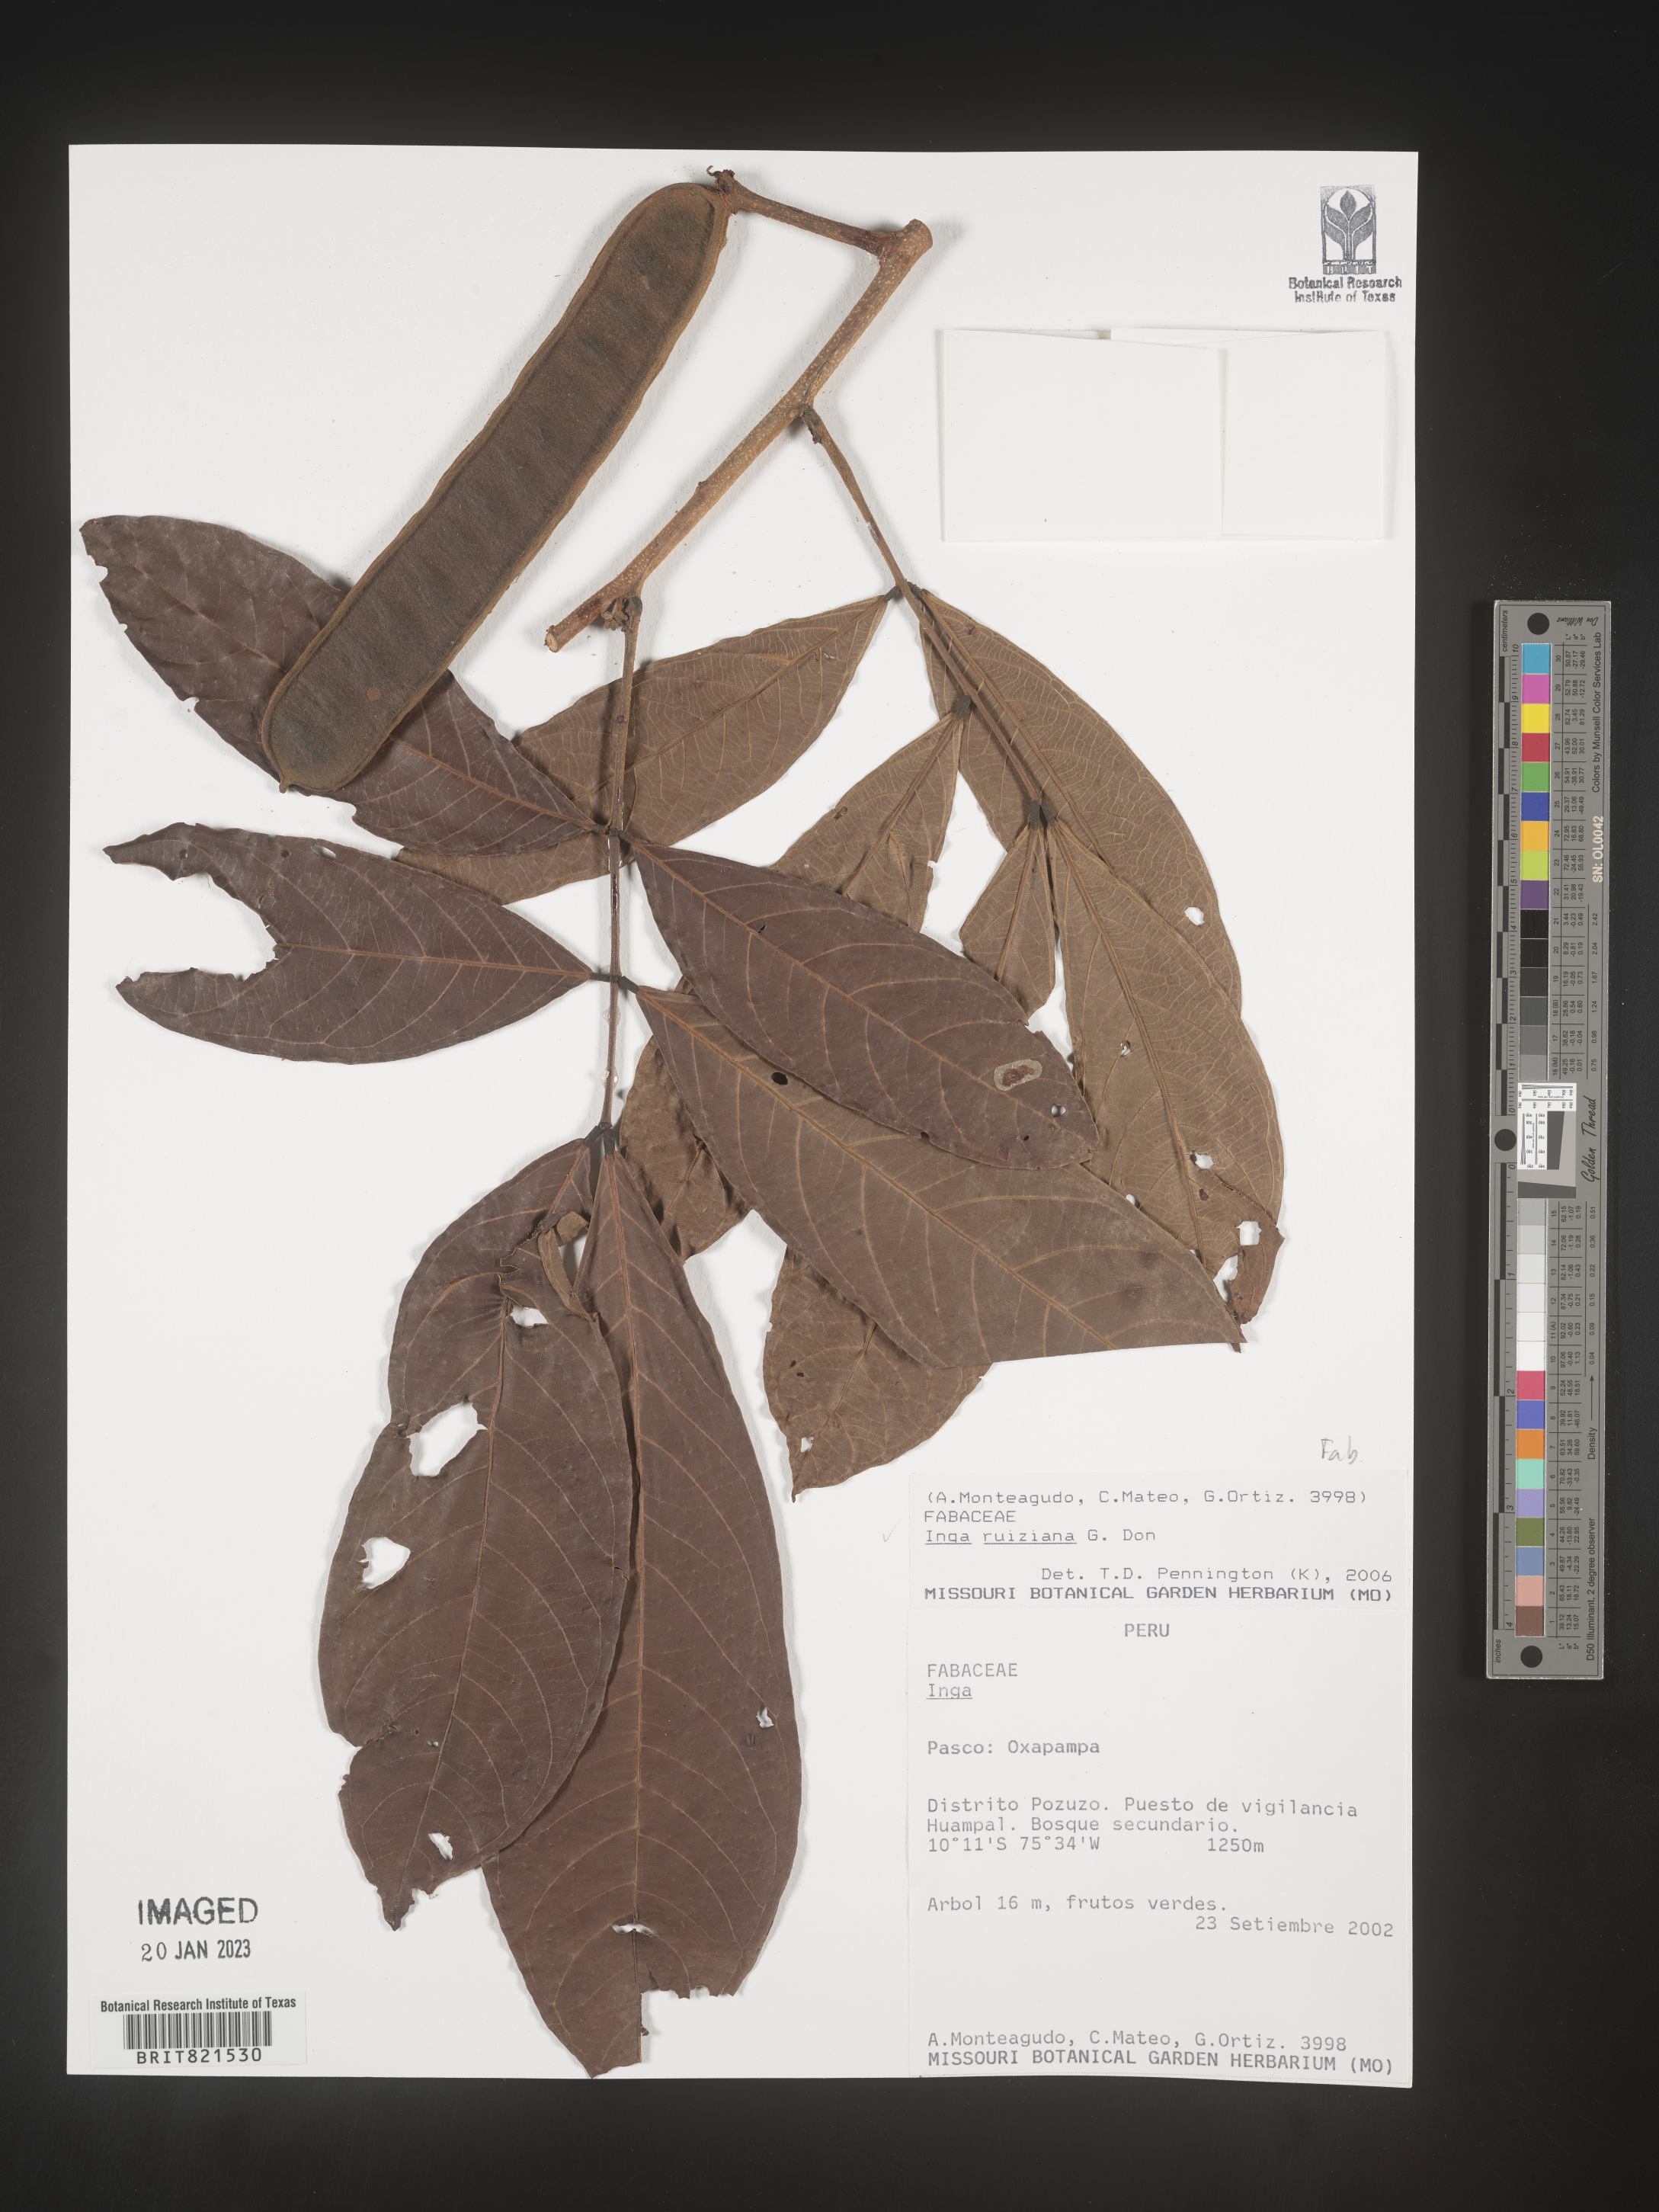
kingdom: Plantae
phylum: Tracheophyta
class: Magnoliopsida
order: Fabales
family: Fabaceae
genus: Inga
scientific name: Inga
